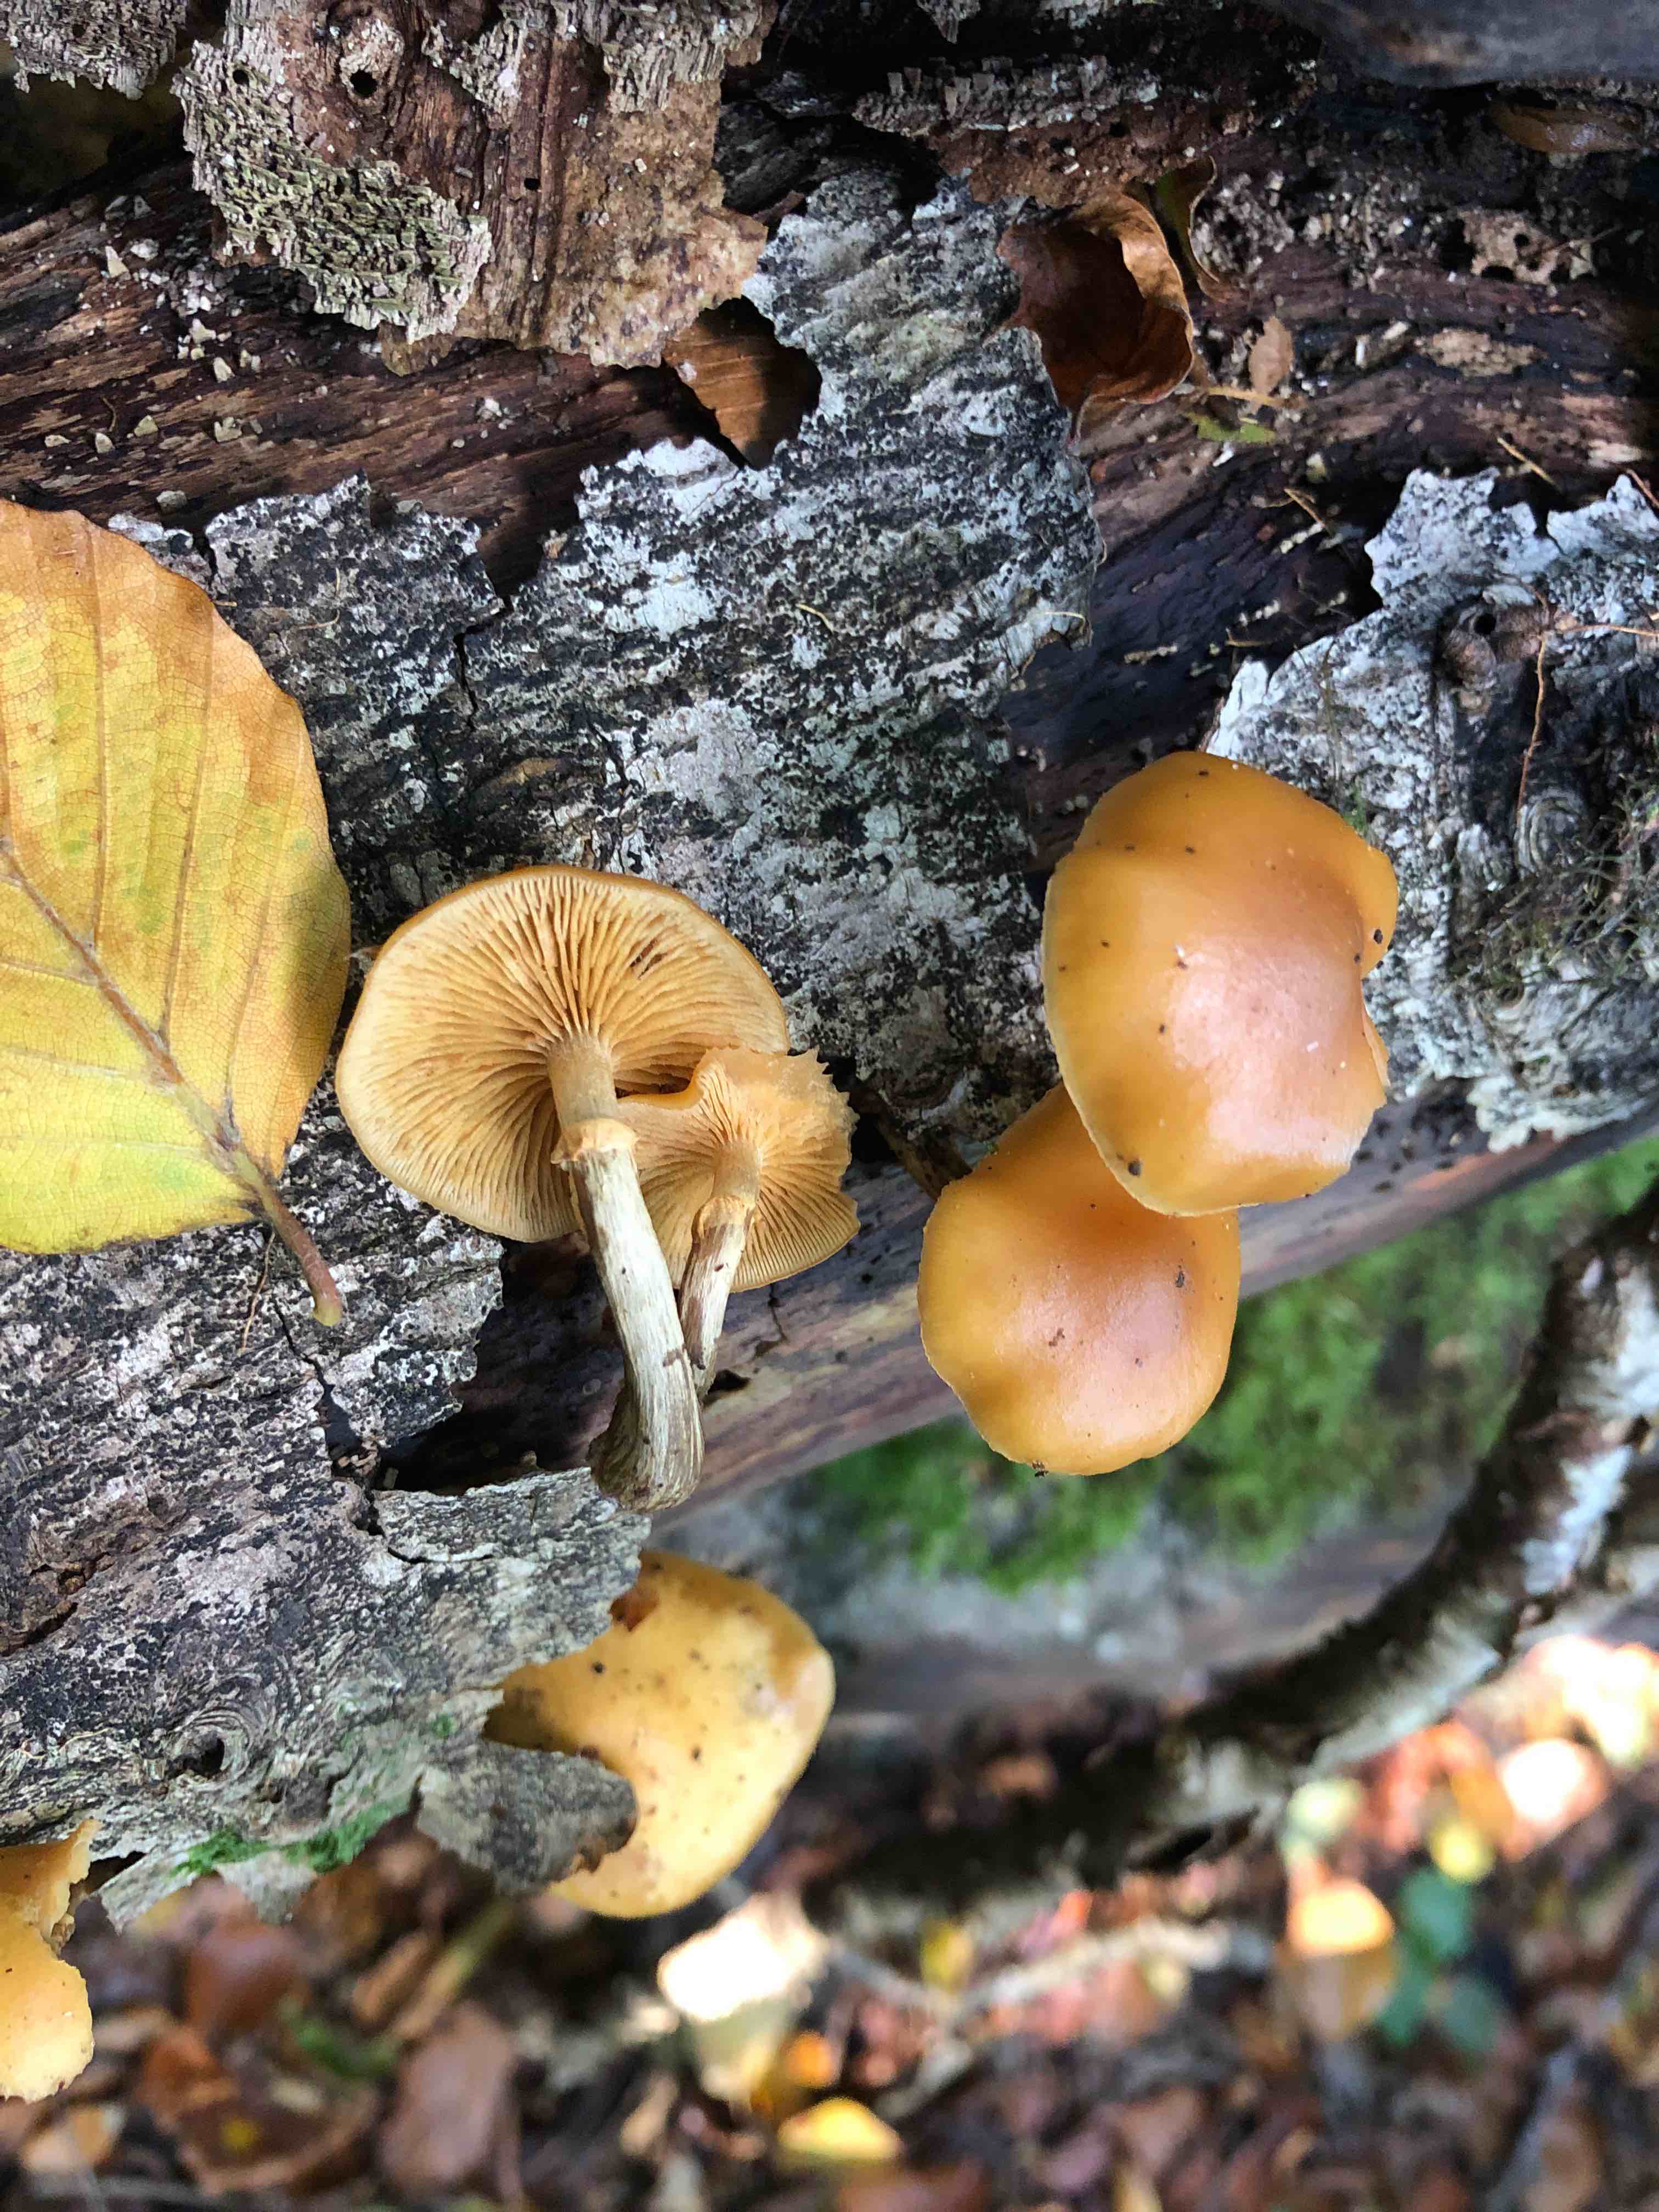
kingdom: Fungi
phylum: Basidiomycota
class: Agaricomycetes
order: Agaricales
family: Hymenogastraceae
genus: Galerina
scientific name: Galerina marginata
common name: randbæltet hjelmhat
